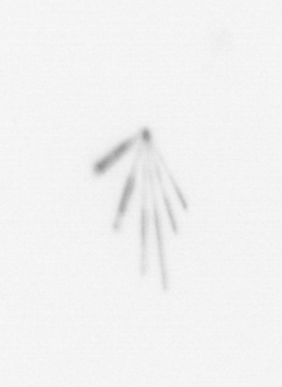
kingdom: Chromista
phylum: Ochrophyta
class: Bacillariophyceae
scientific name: Bacillariophyceae
